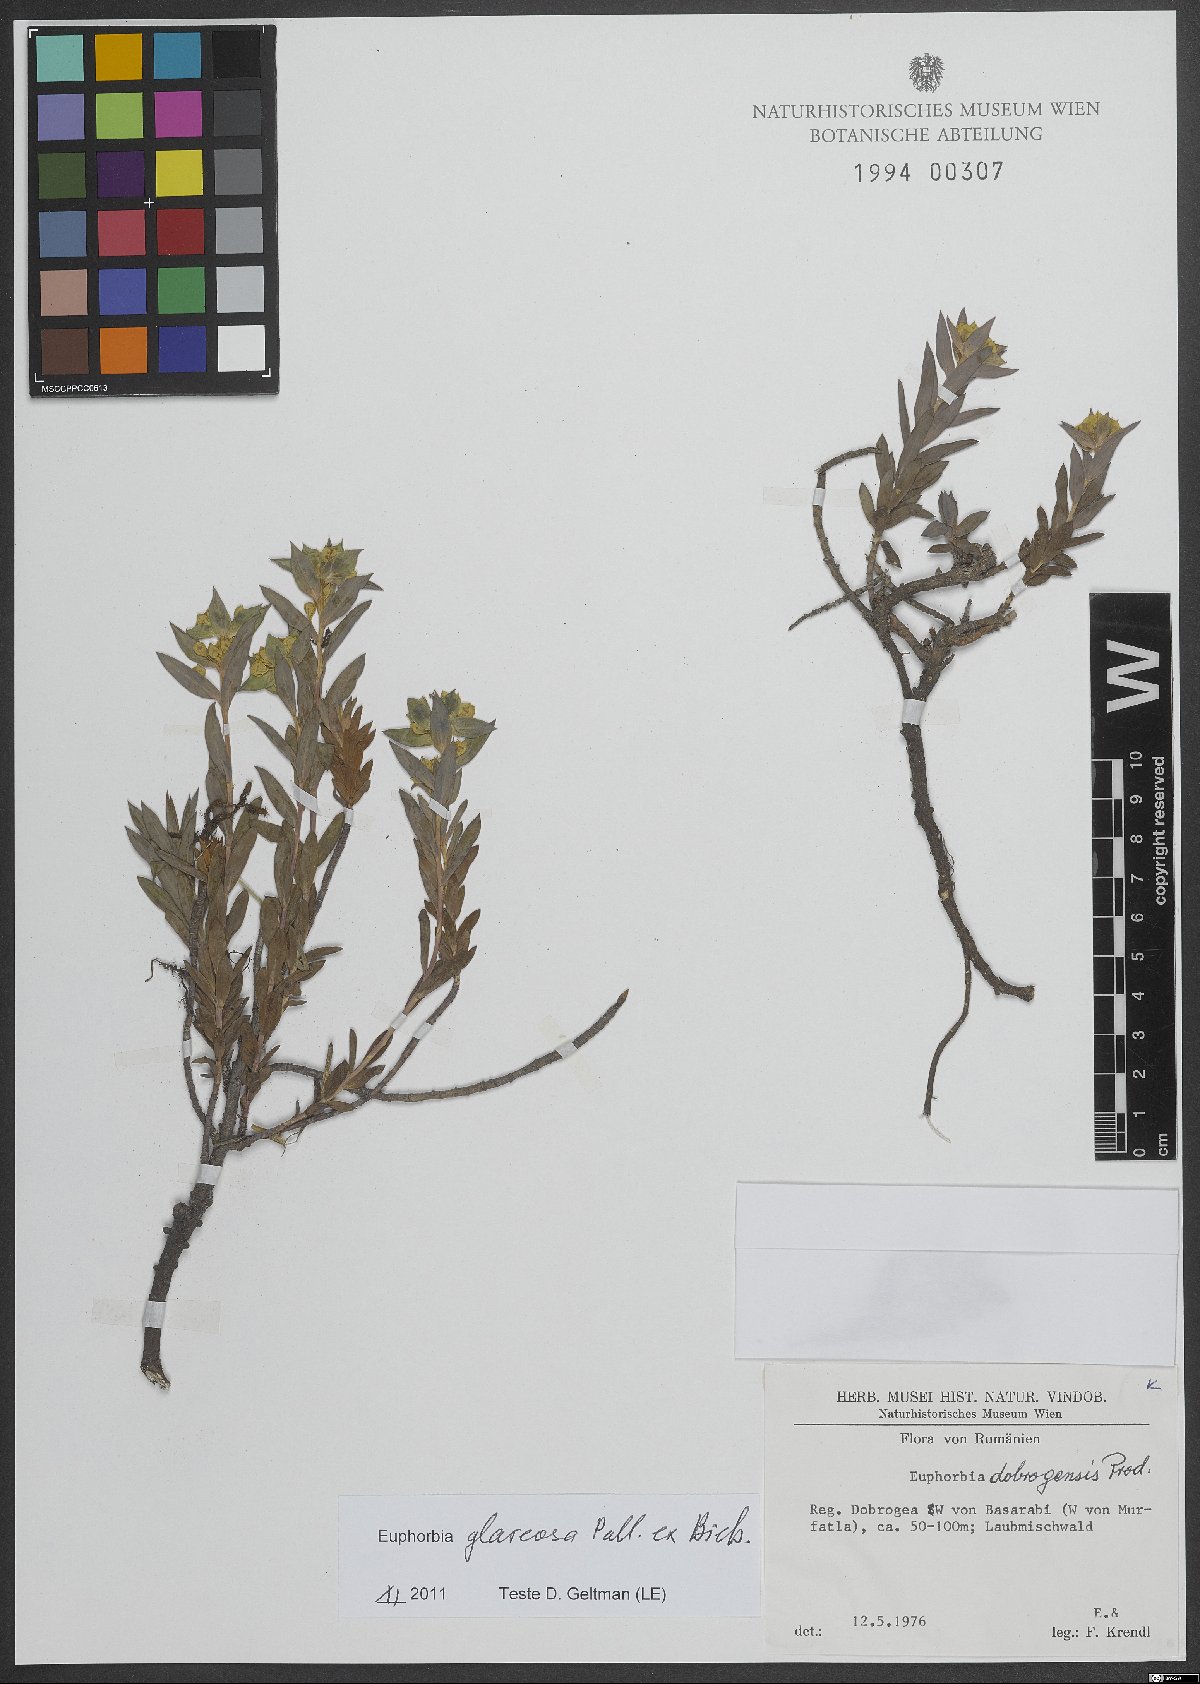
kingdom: Plantae
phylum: Tracheophyta
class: Magnoliopsida
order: Malpighiales
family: Euphorbiaceae
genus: Euphorbia
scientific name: Euphorbia glareosa
